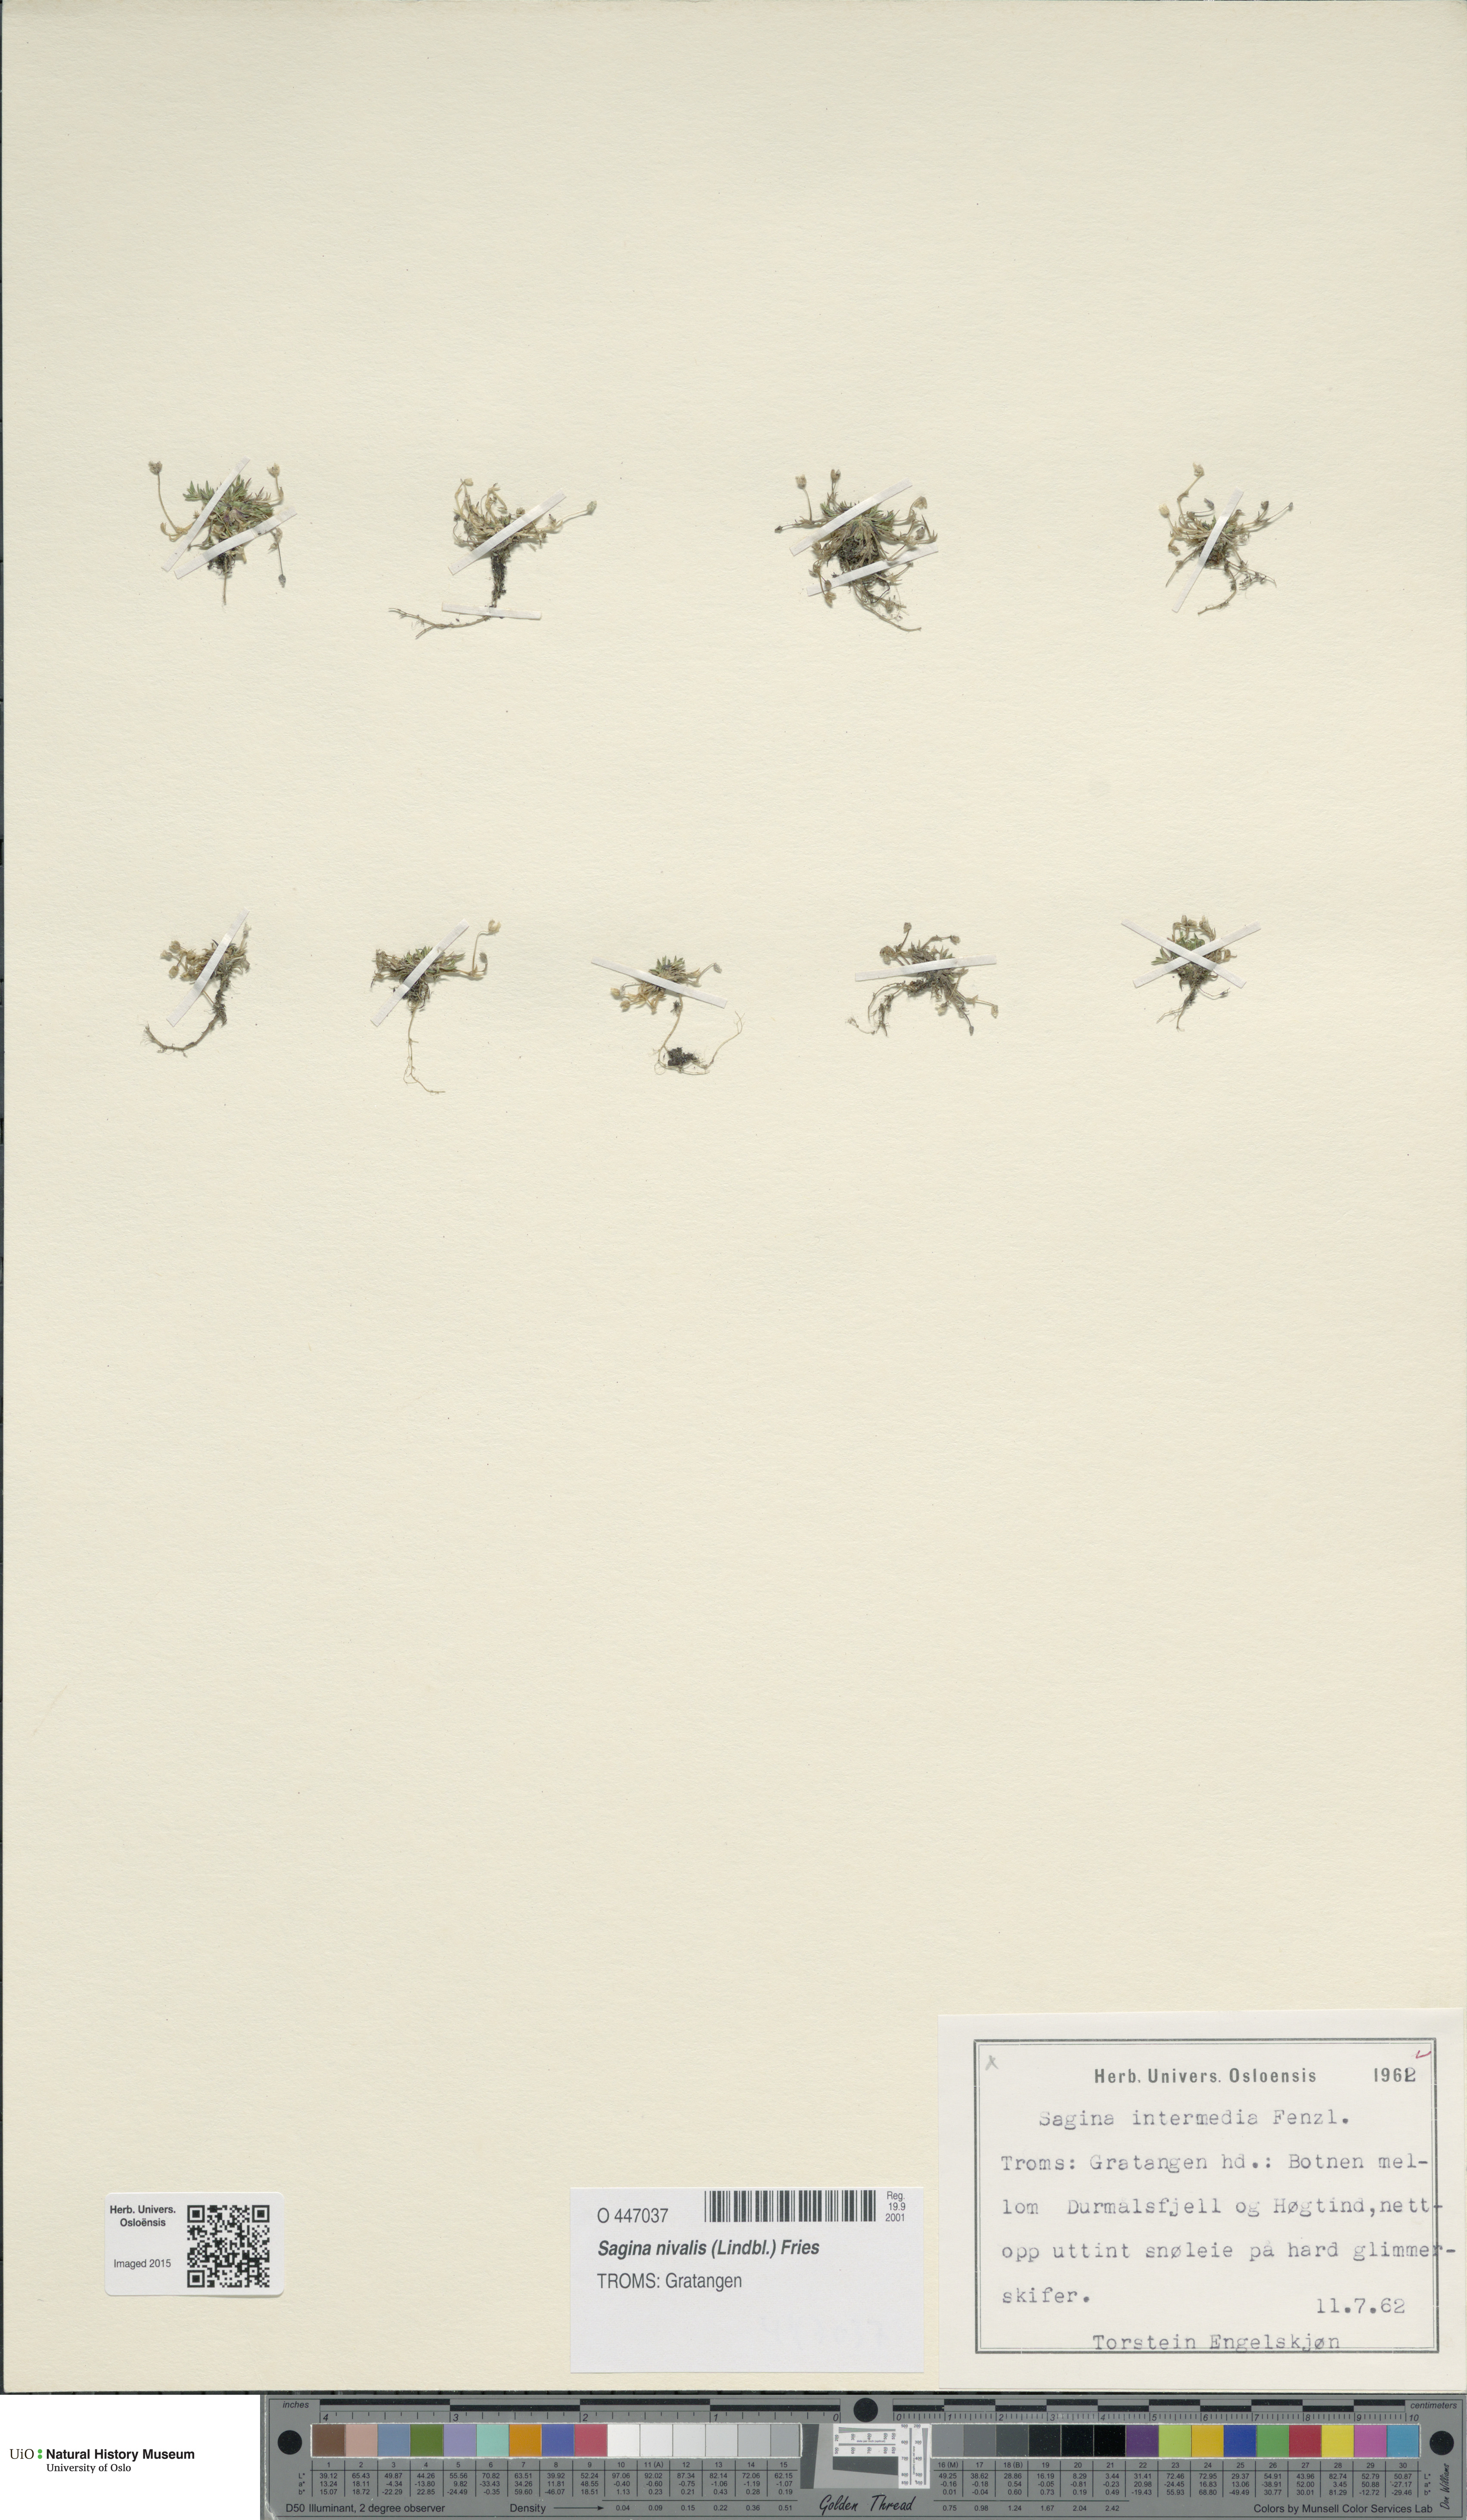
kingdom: Plantae
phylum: Tracheophyta
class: Magnoliopsida
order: Caryophyllales
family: Caryophyllaceae
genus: Sagina
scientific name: Sagina nivalis
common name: Snow pearlwort
